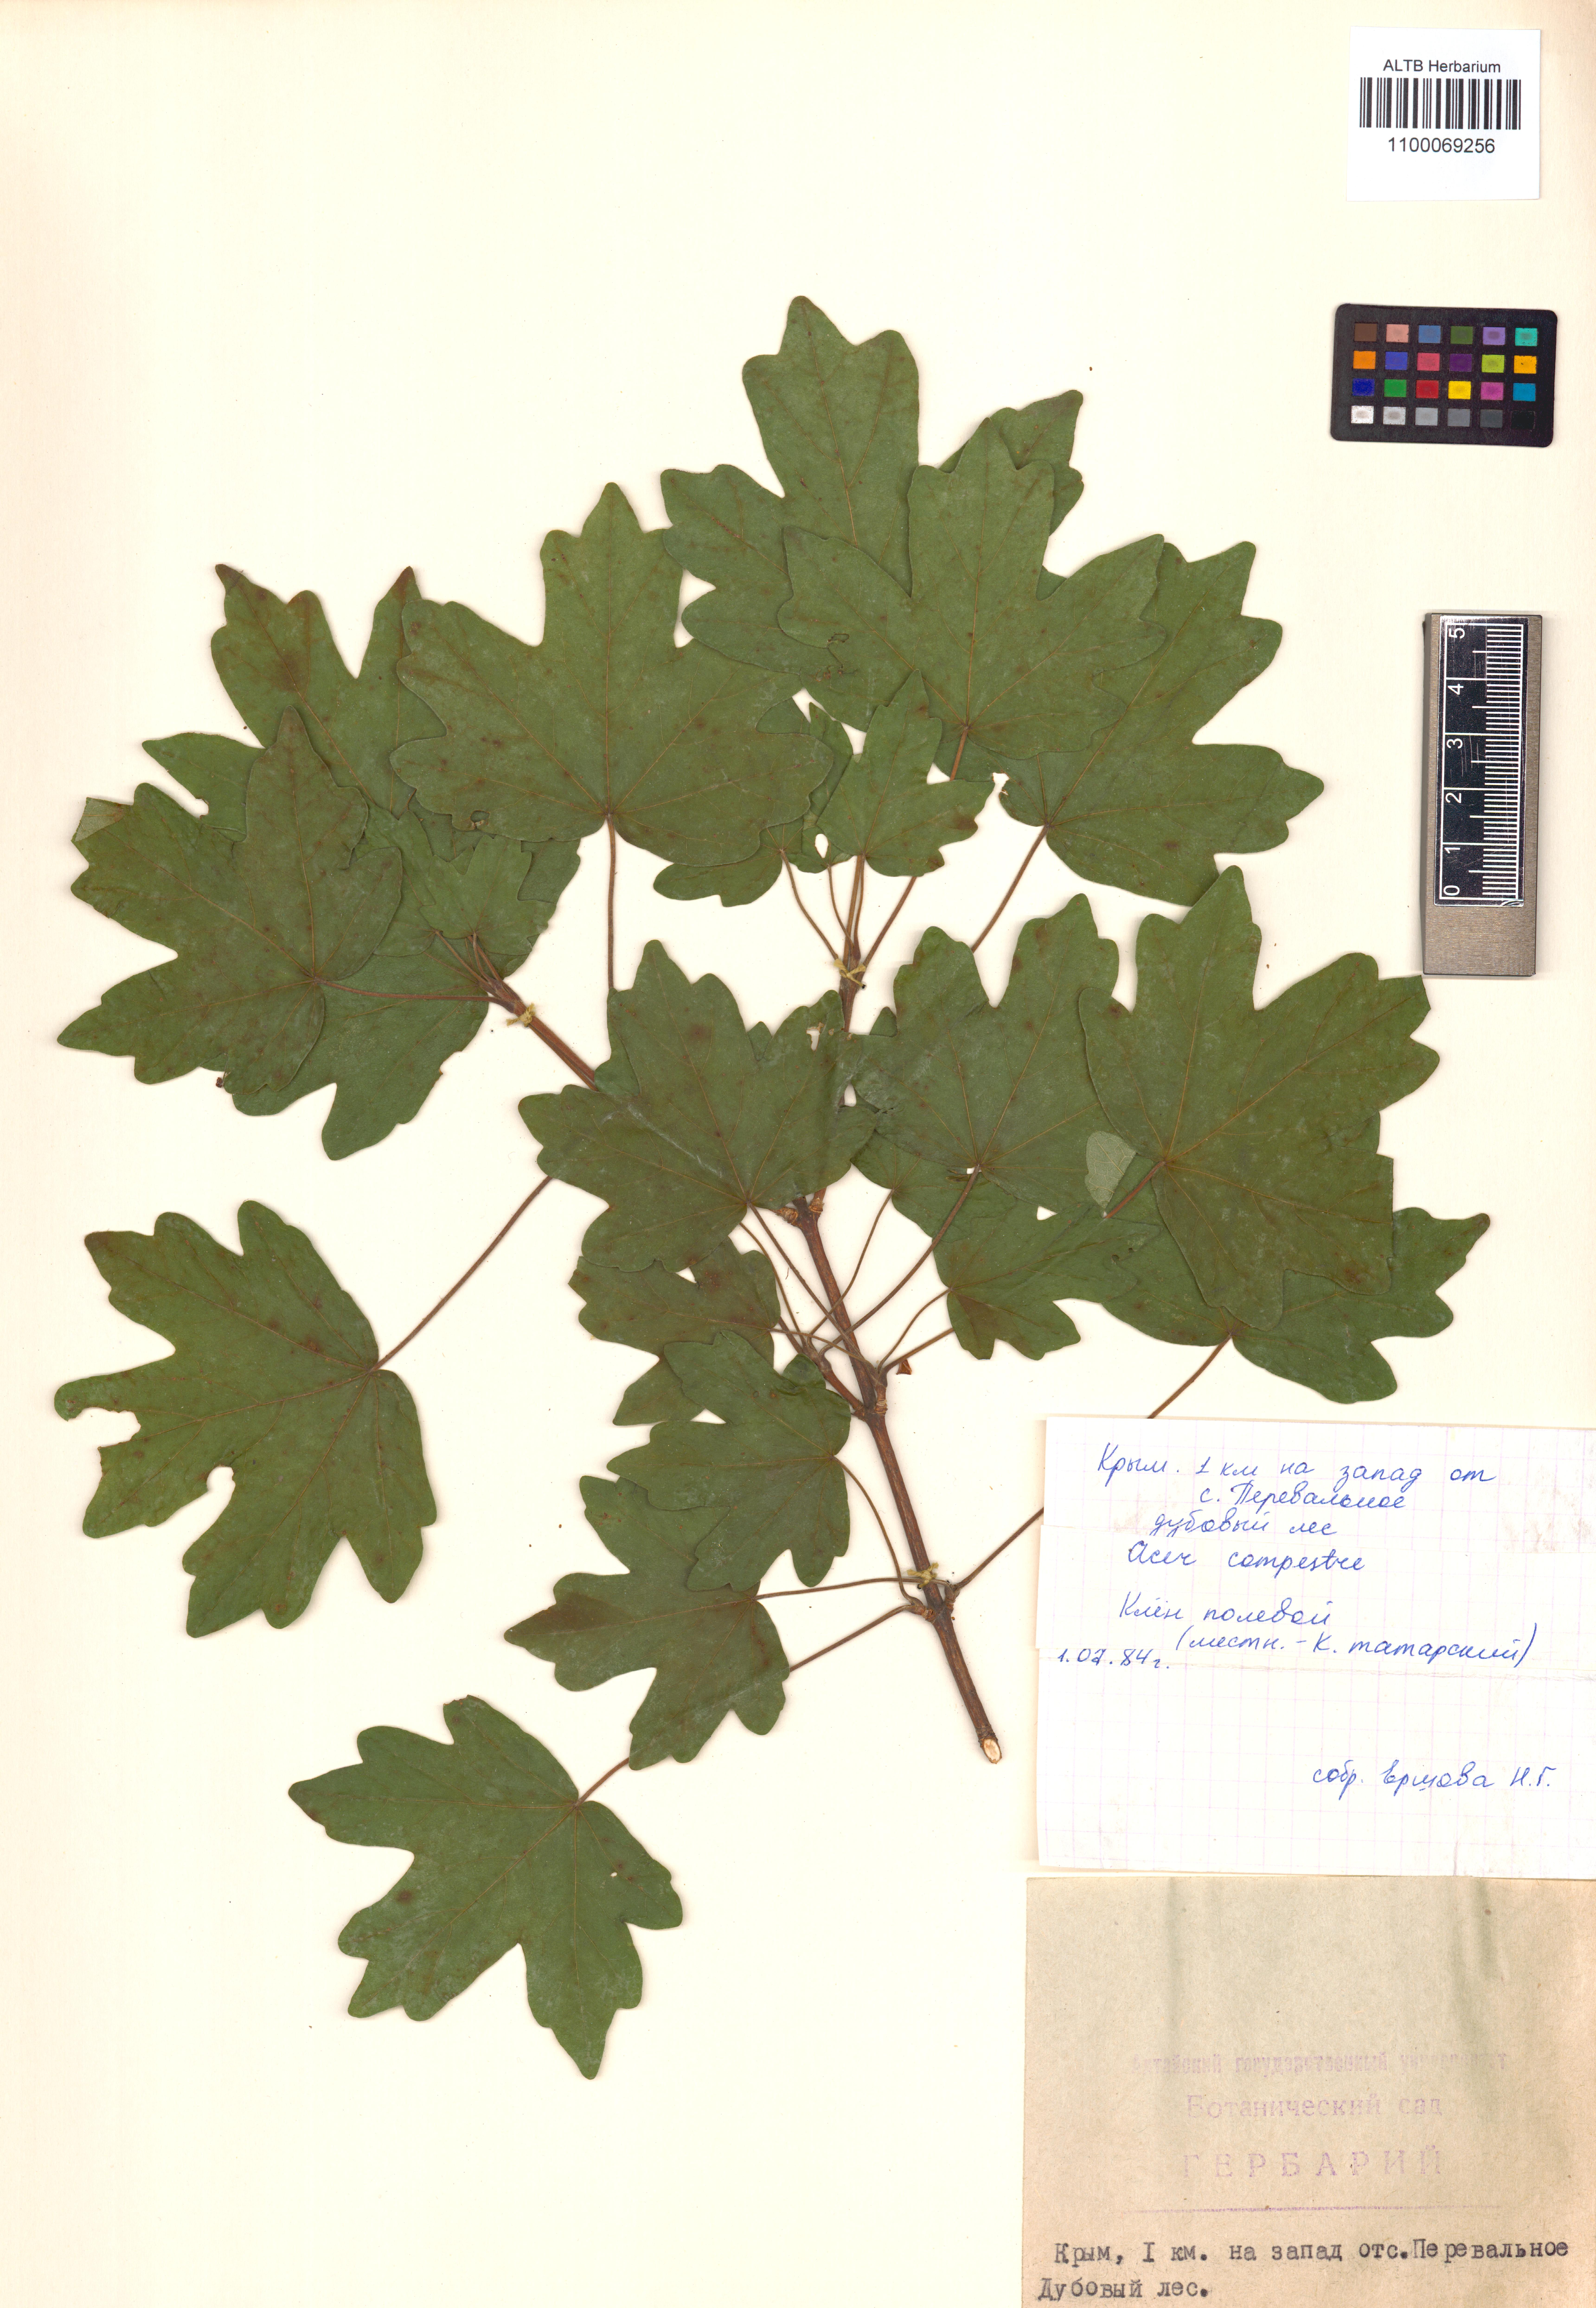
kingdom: Plantae
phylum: Tracheophyta
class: Magnoliopsida
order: Sapindales
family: Sapindaceae
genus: Acer
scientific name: Acer campestre
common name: Field maple
